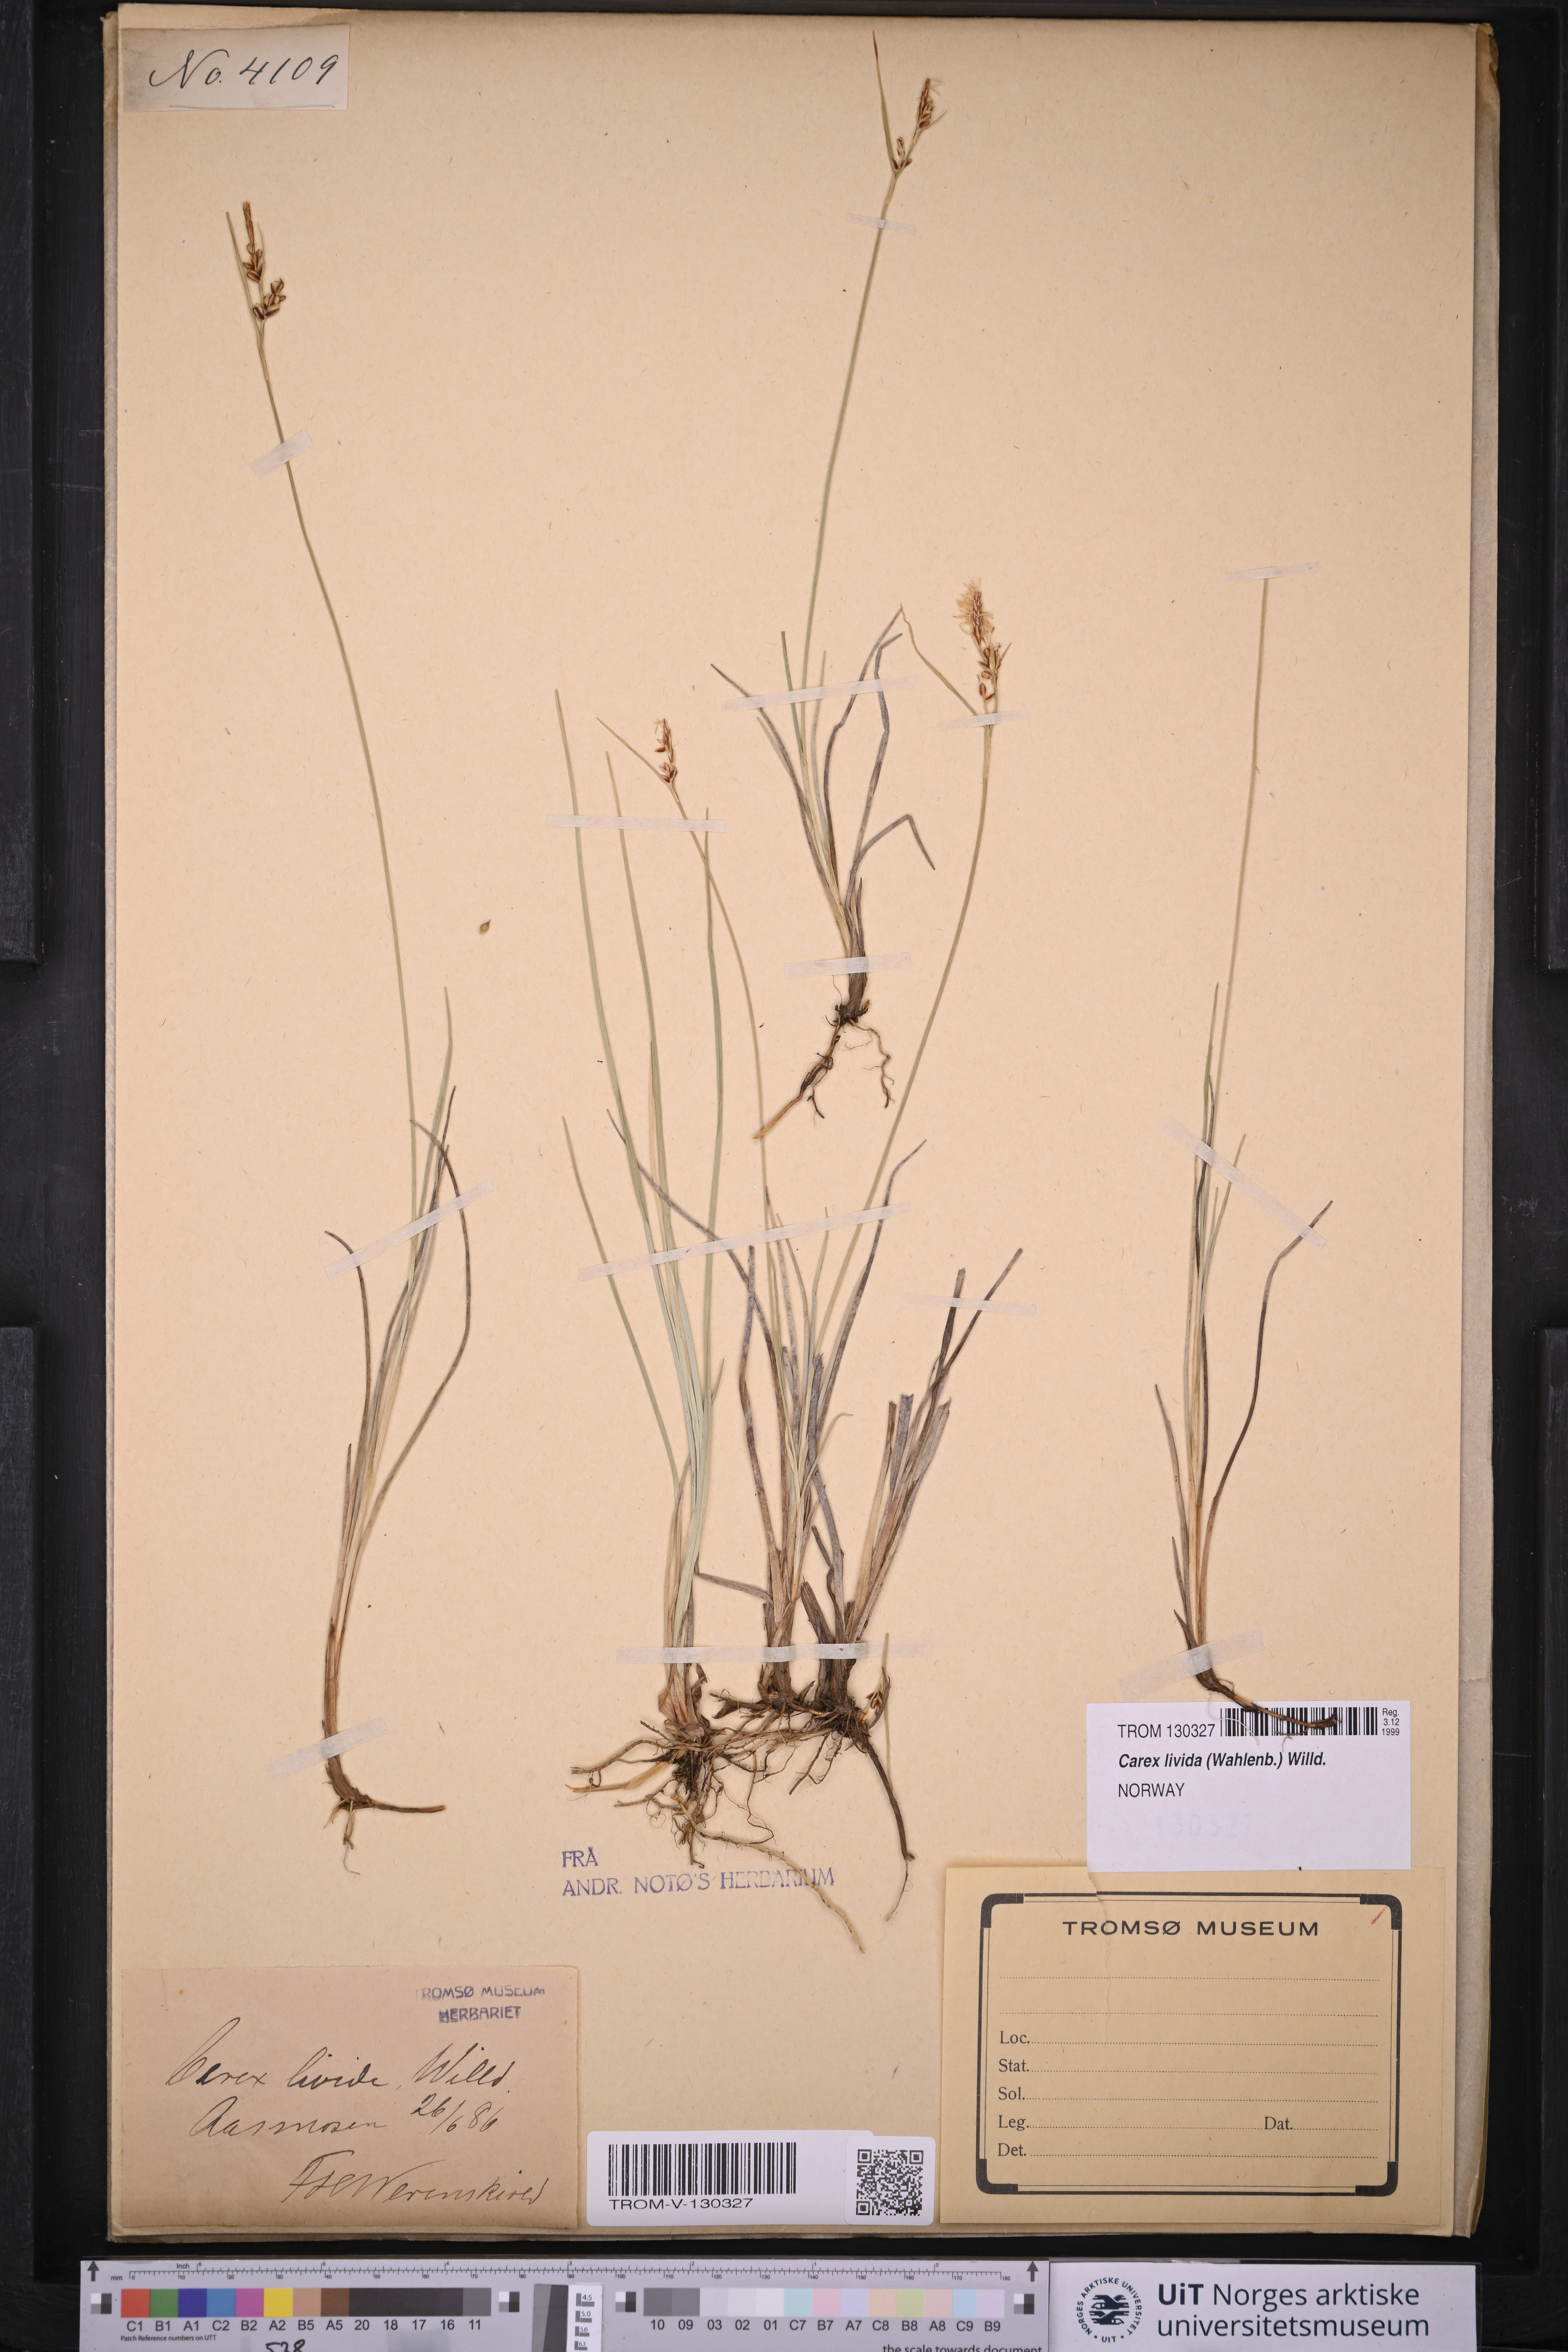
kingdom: Plantae
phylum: Tracheophyta
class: Liliopsida
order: Poales
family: Cyperaceae
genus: Carex
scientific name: Carex livida
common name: Livid sedge
